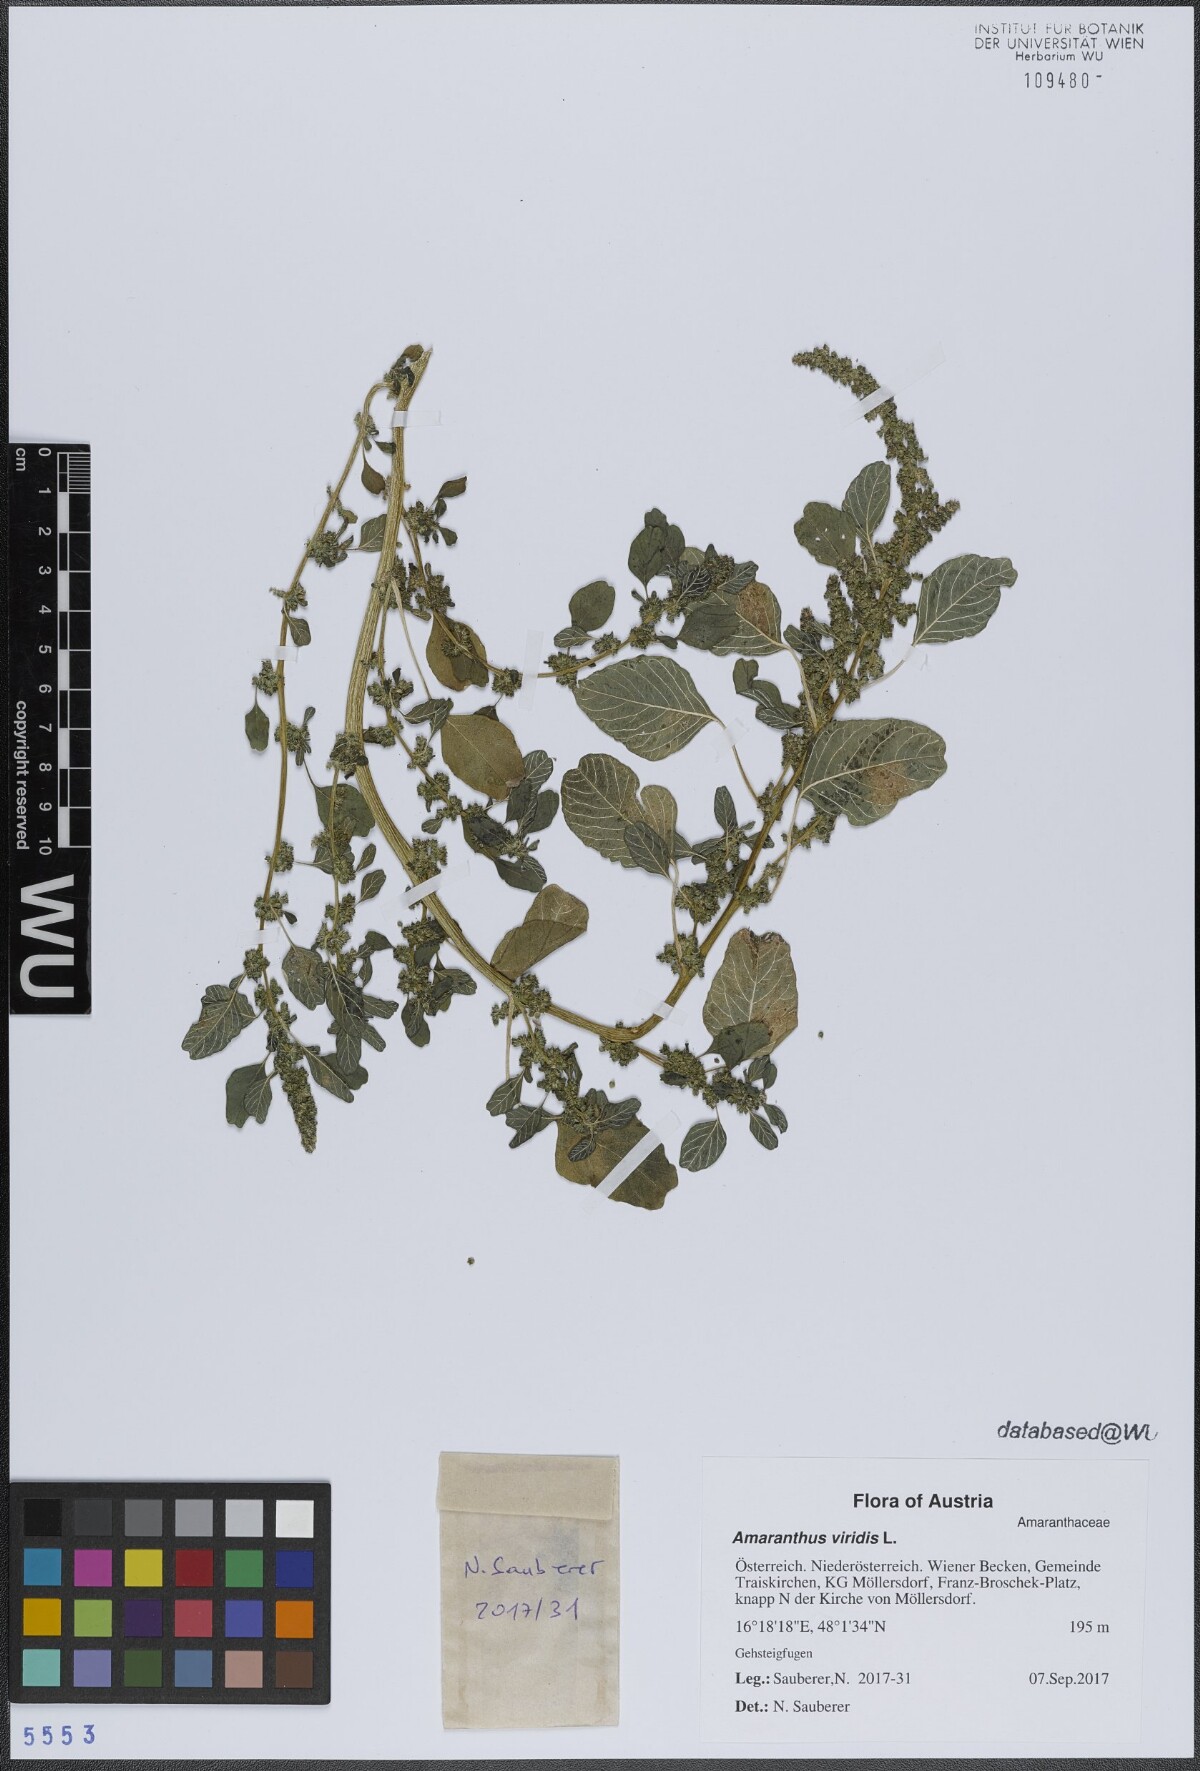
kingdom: Plantae
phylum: Tracheophyta
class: Magnoliopsida
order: Caryophyllales
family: Amaranthaceae
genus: Amaranthus
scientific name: Amaranthus viridis
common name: Slender amaranth
